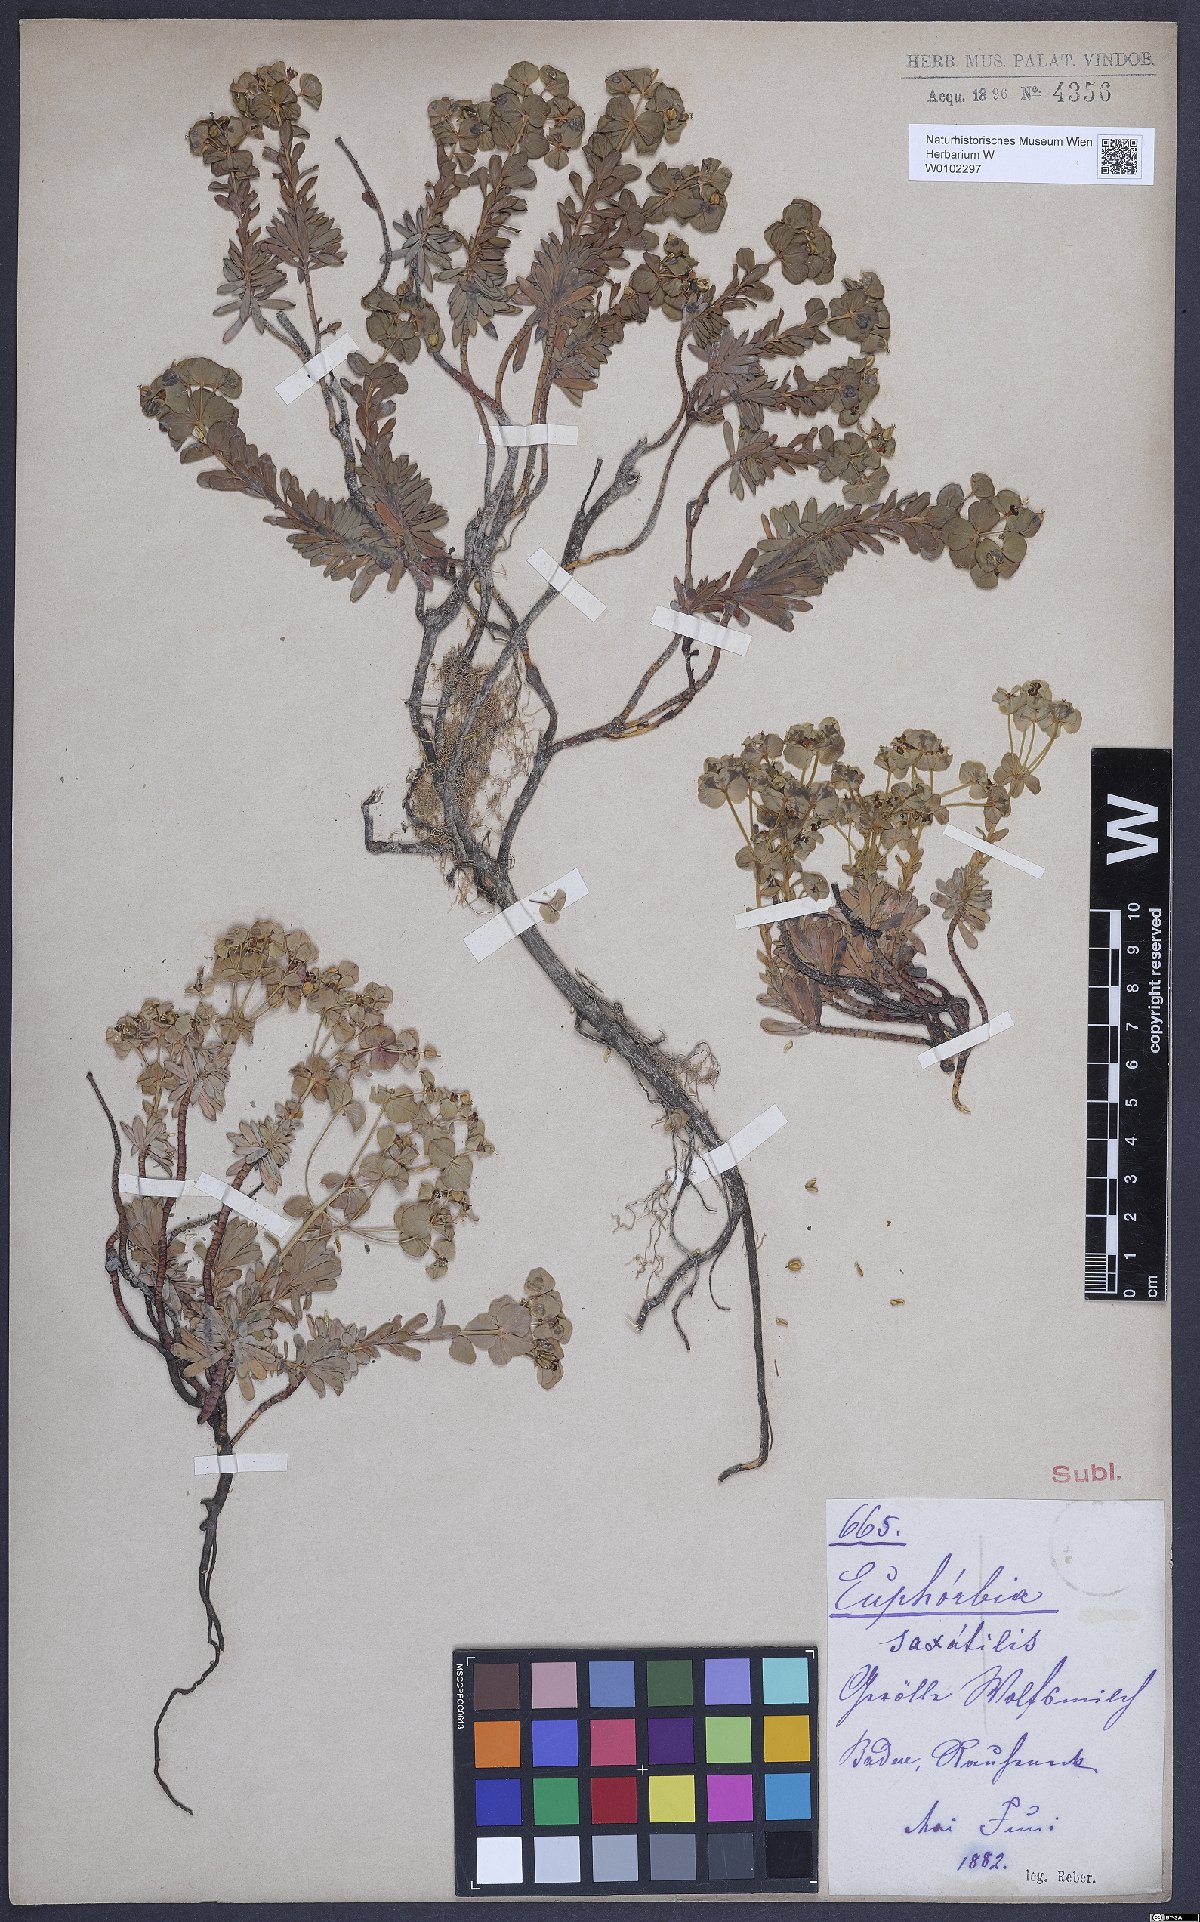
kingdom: Plantae
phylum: Tracheophyta
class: Magnoliopsida
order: Malpighiales
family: Euphorbiaceae
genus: Euphorbia
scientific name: Euphorbia saxatilis
